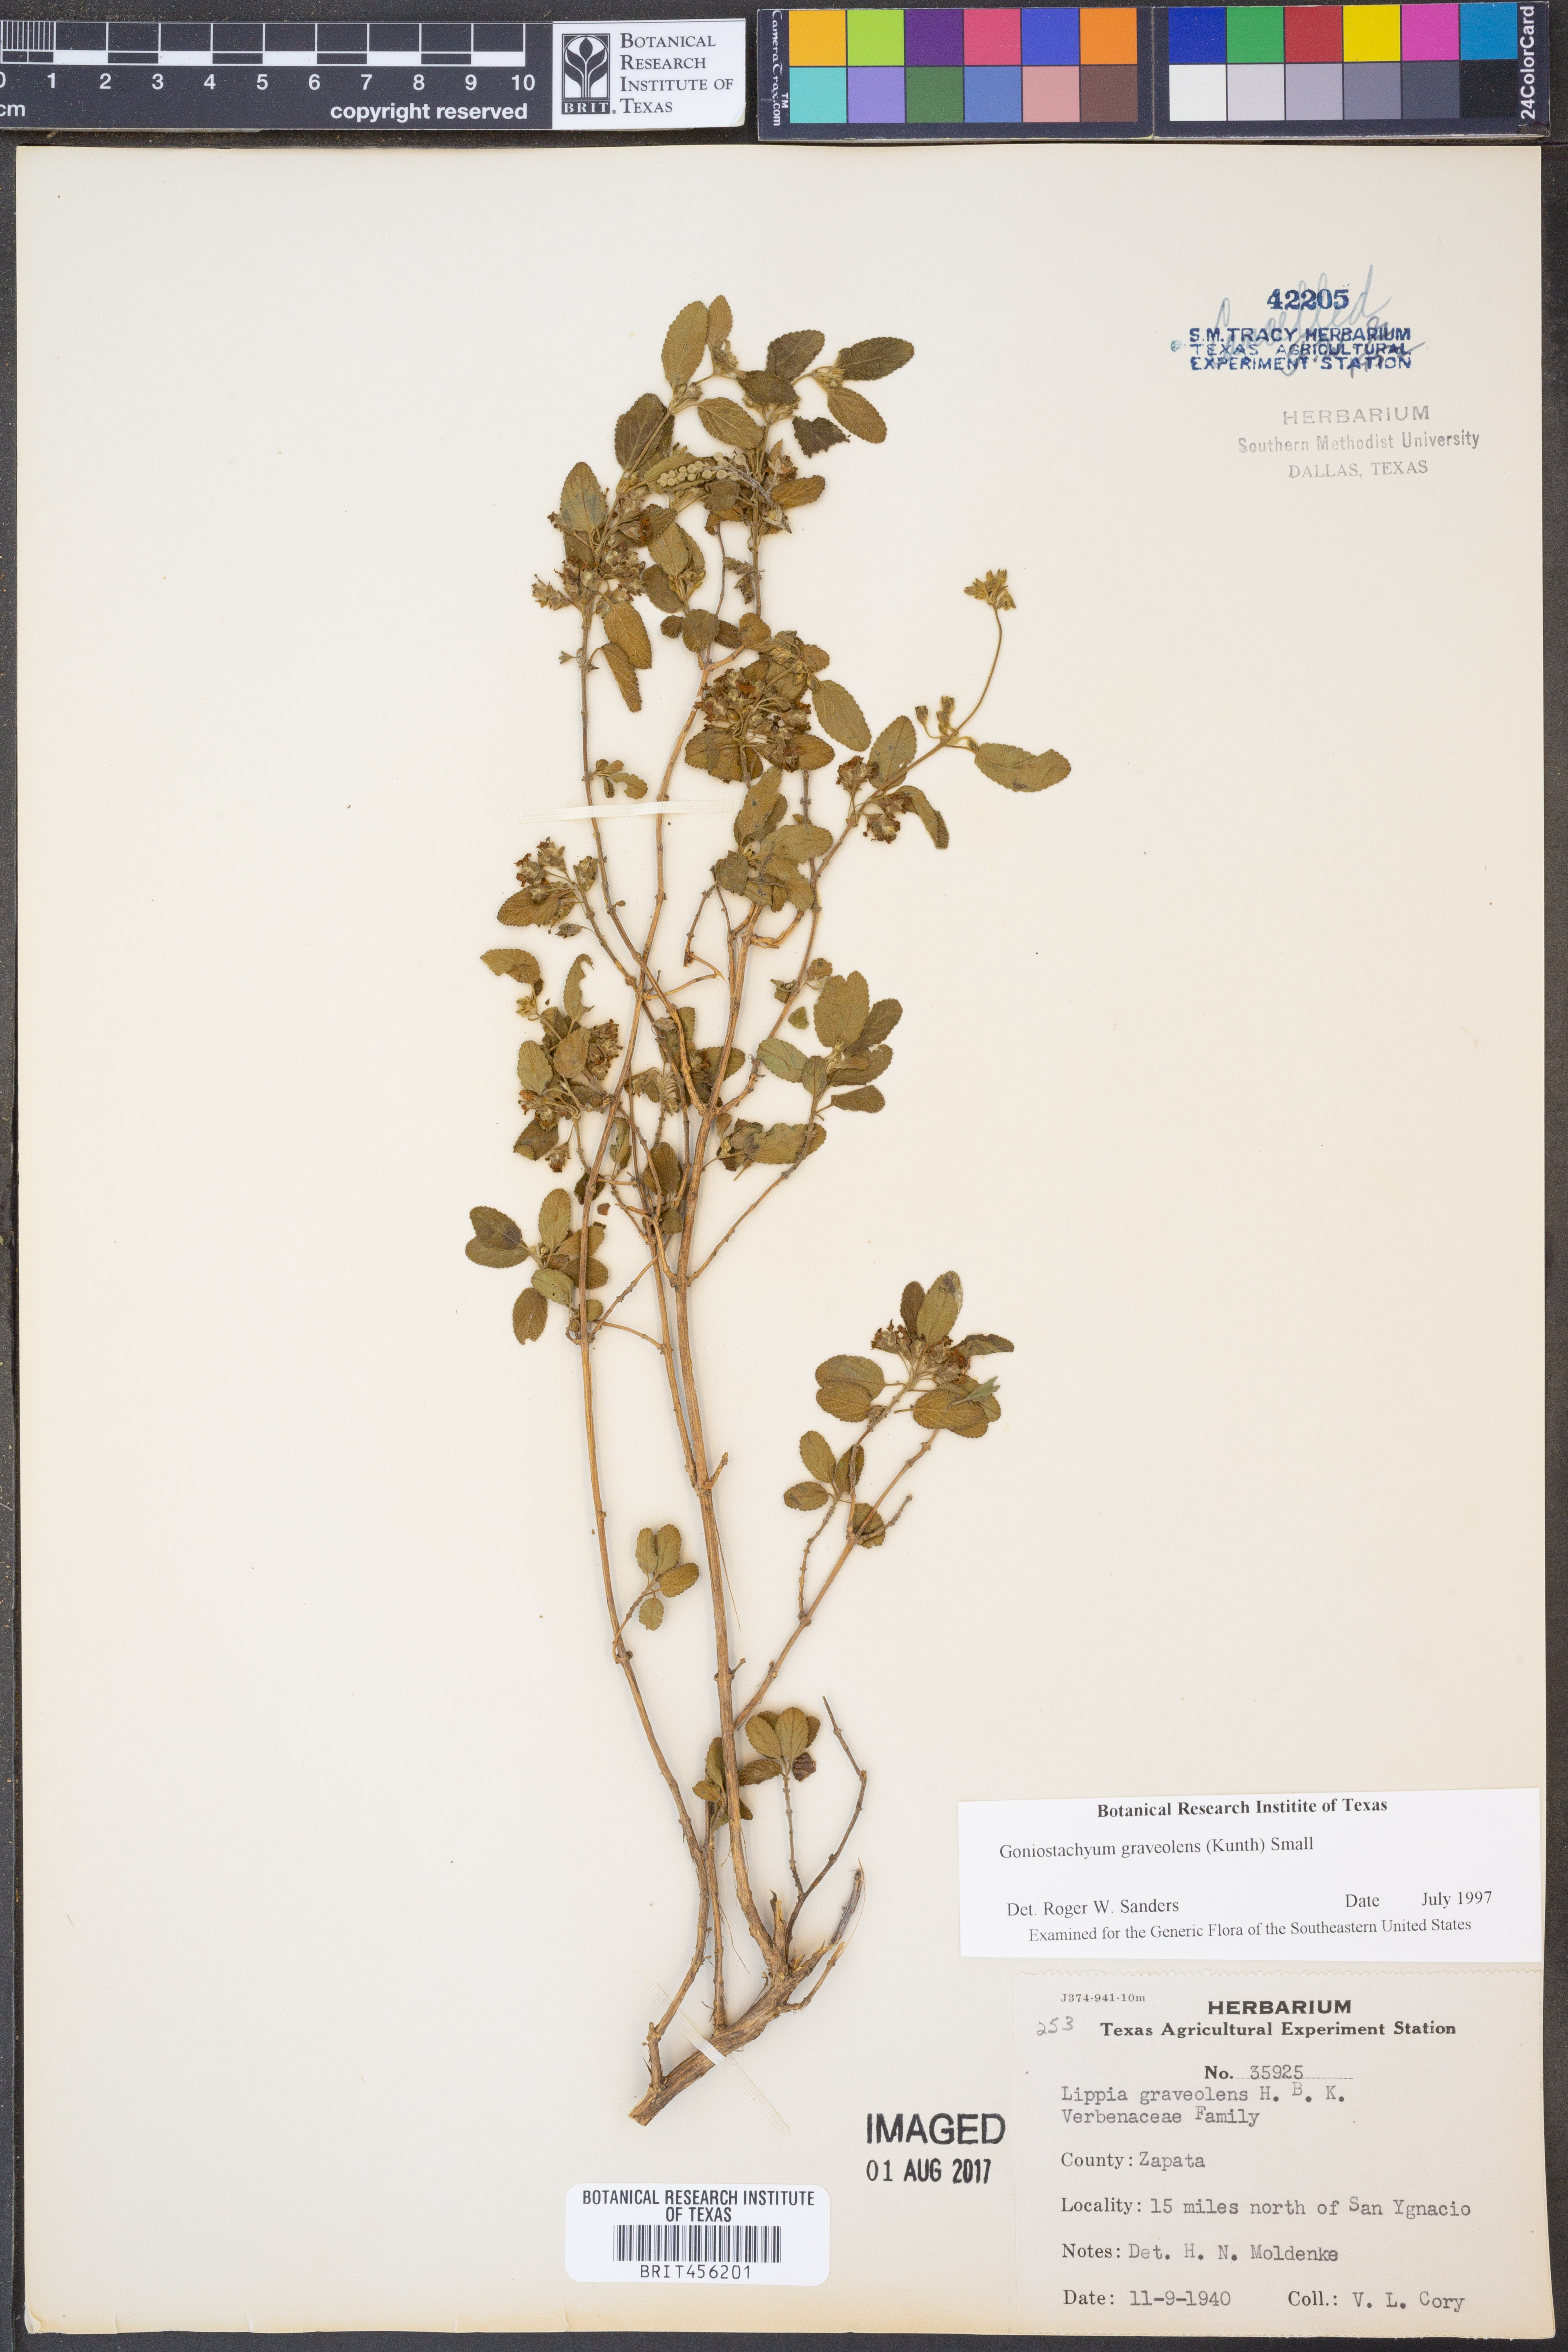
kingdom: Plantae
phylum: Tracheophyta
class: Magnoliopsida
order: Lamiales
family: Verbenaceae
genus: Lippia
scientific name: Lippia origanoides
